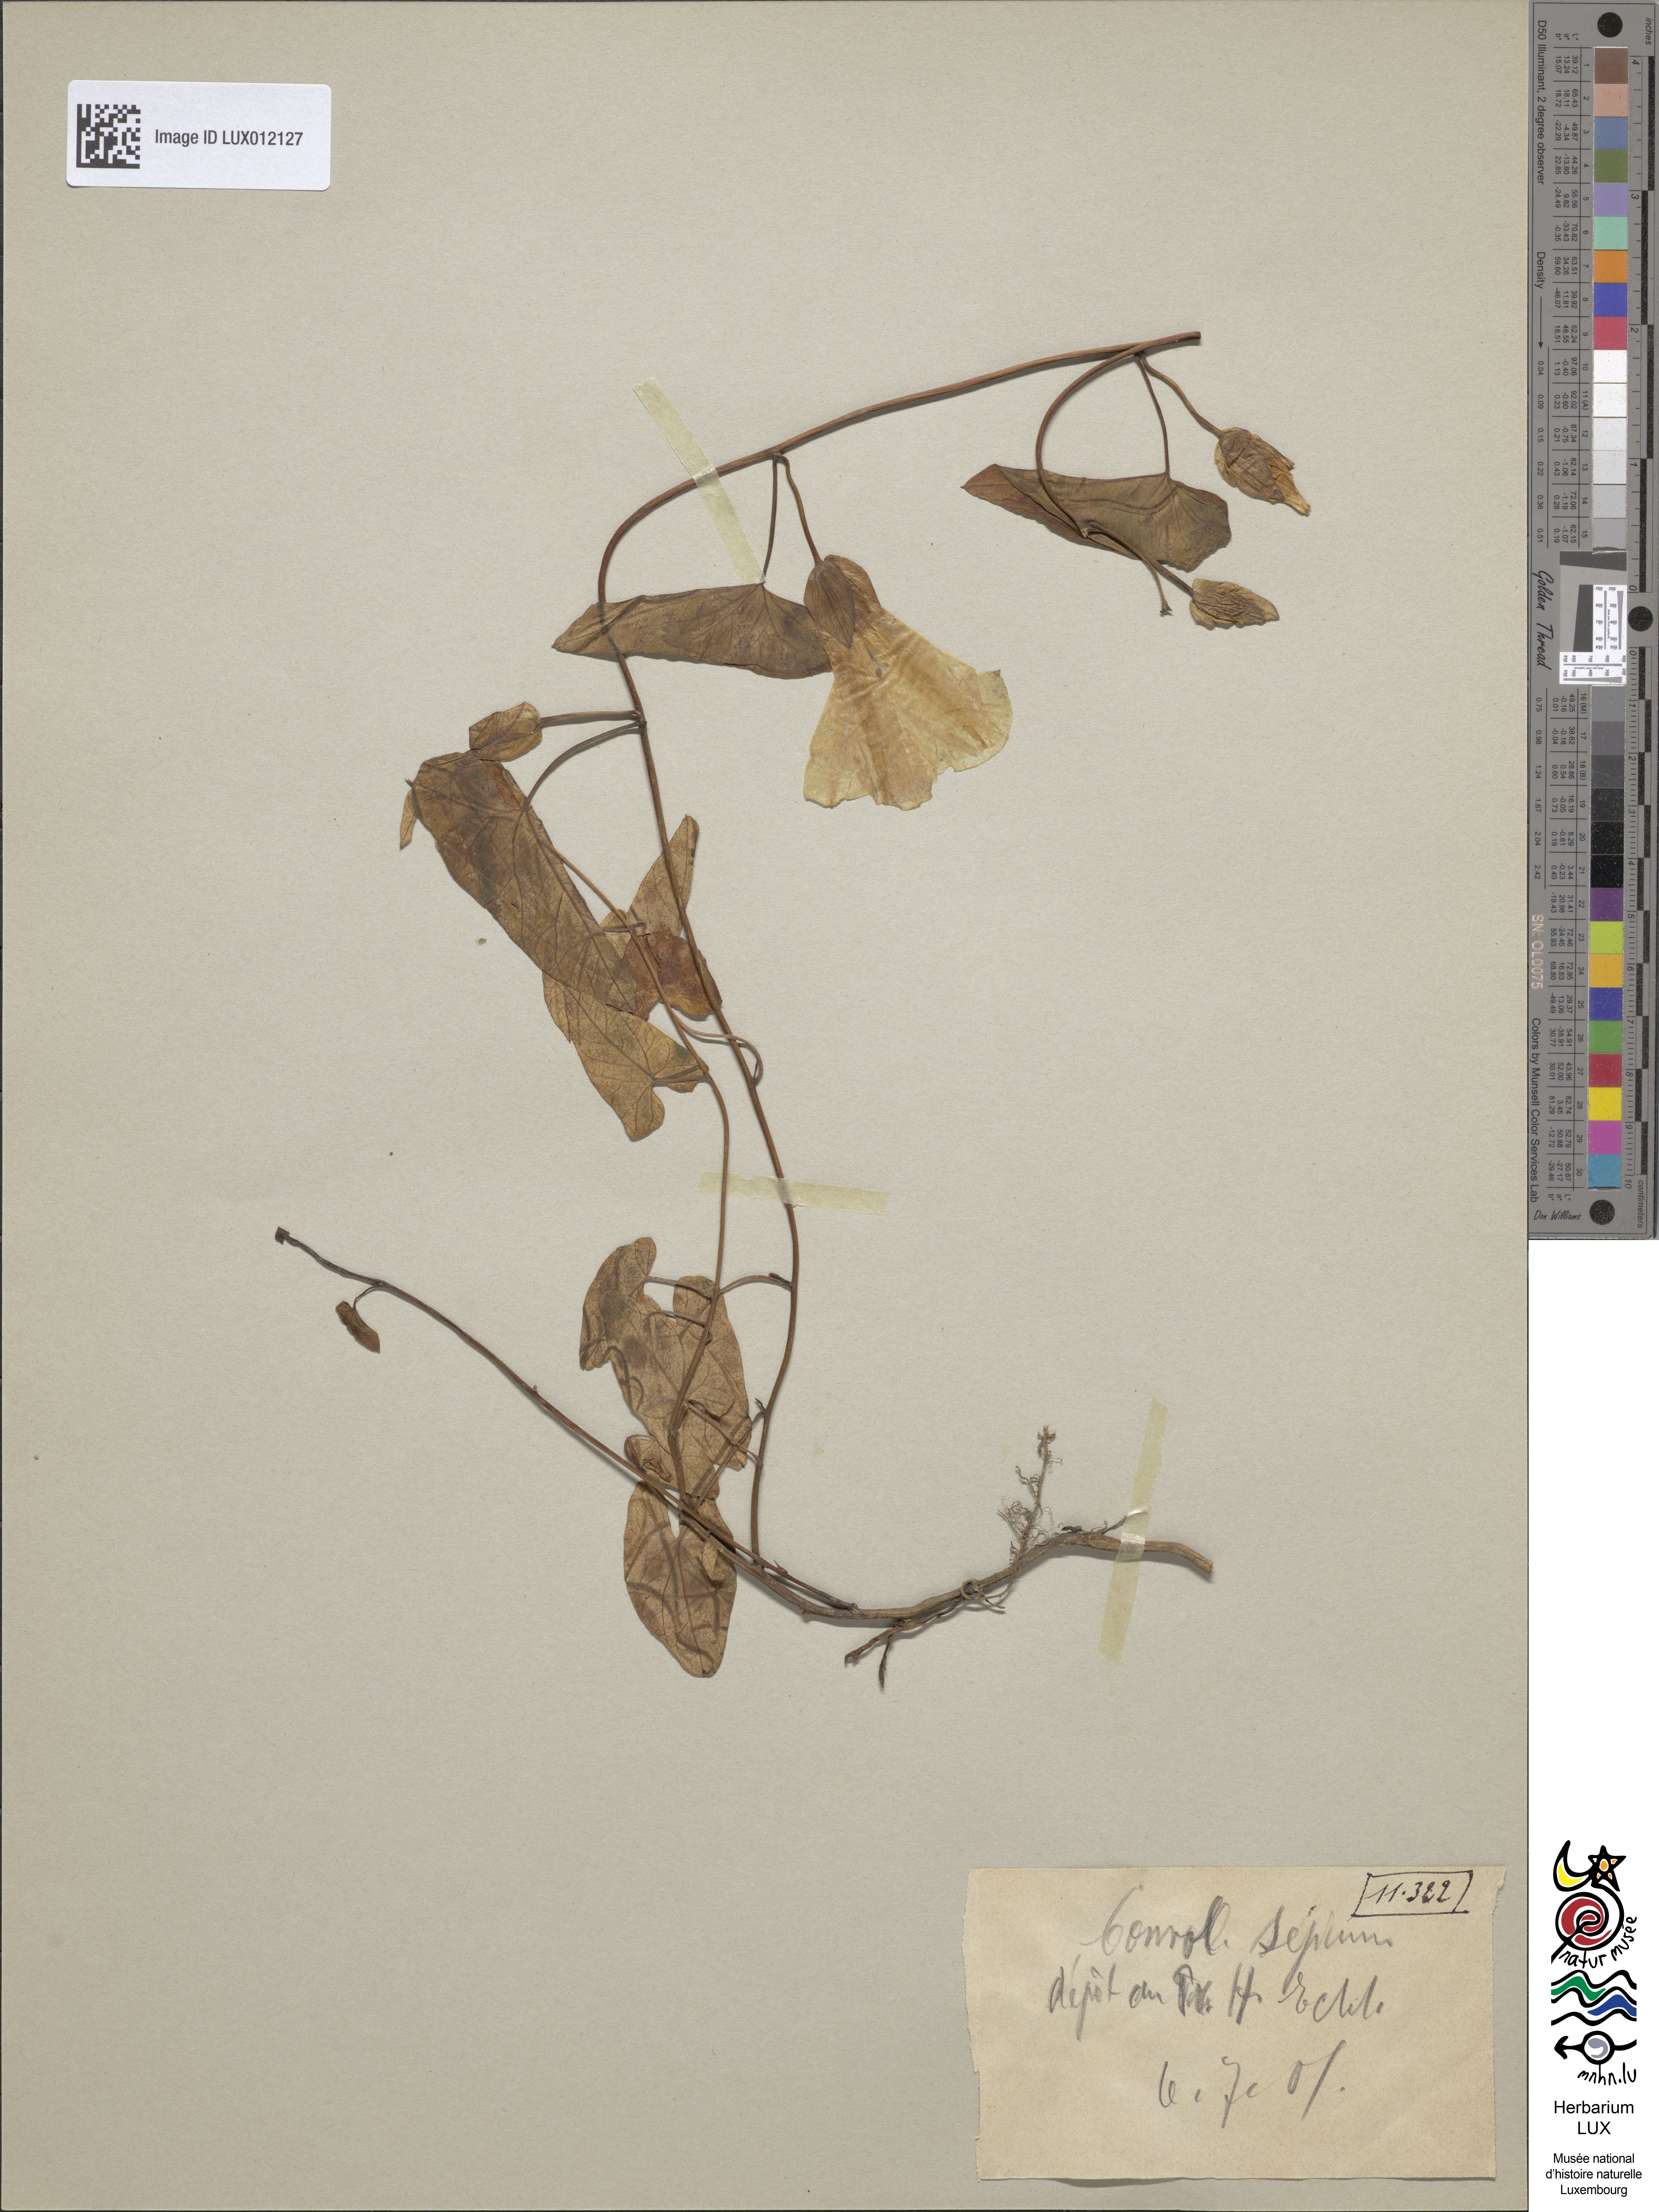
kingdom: Plantae
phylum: Tracheophyta
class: Magnoliopsida
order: Solanales
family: Convolvulaceae
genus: Calystegia
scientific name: Calystegia sepium
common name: Hedge bindweed
